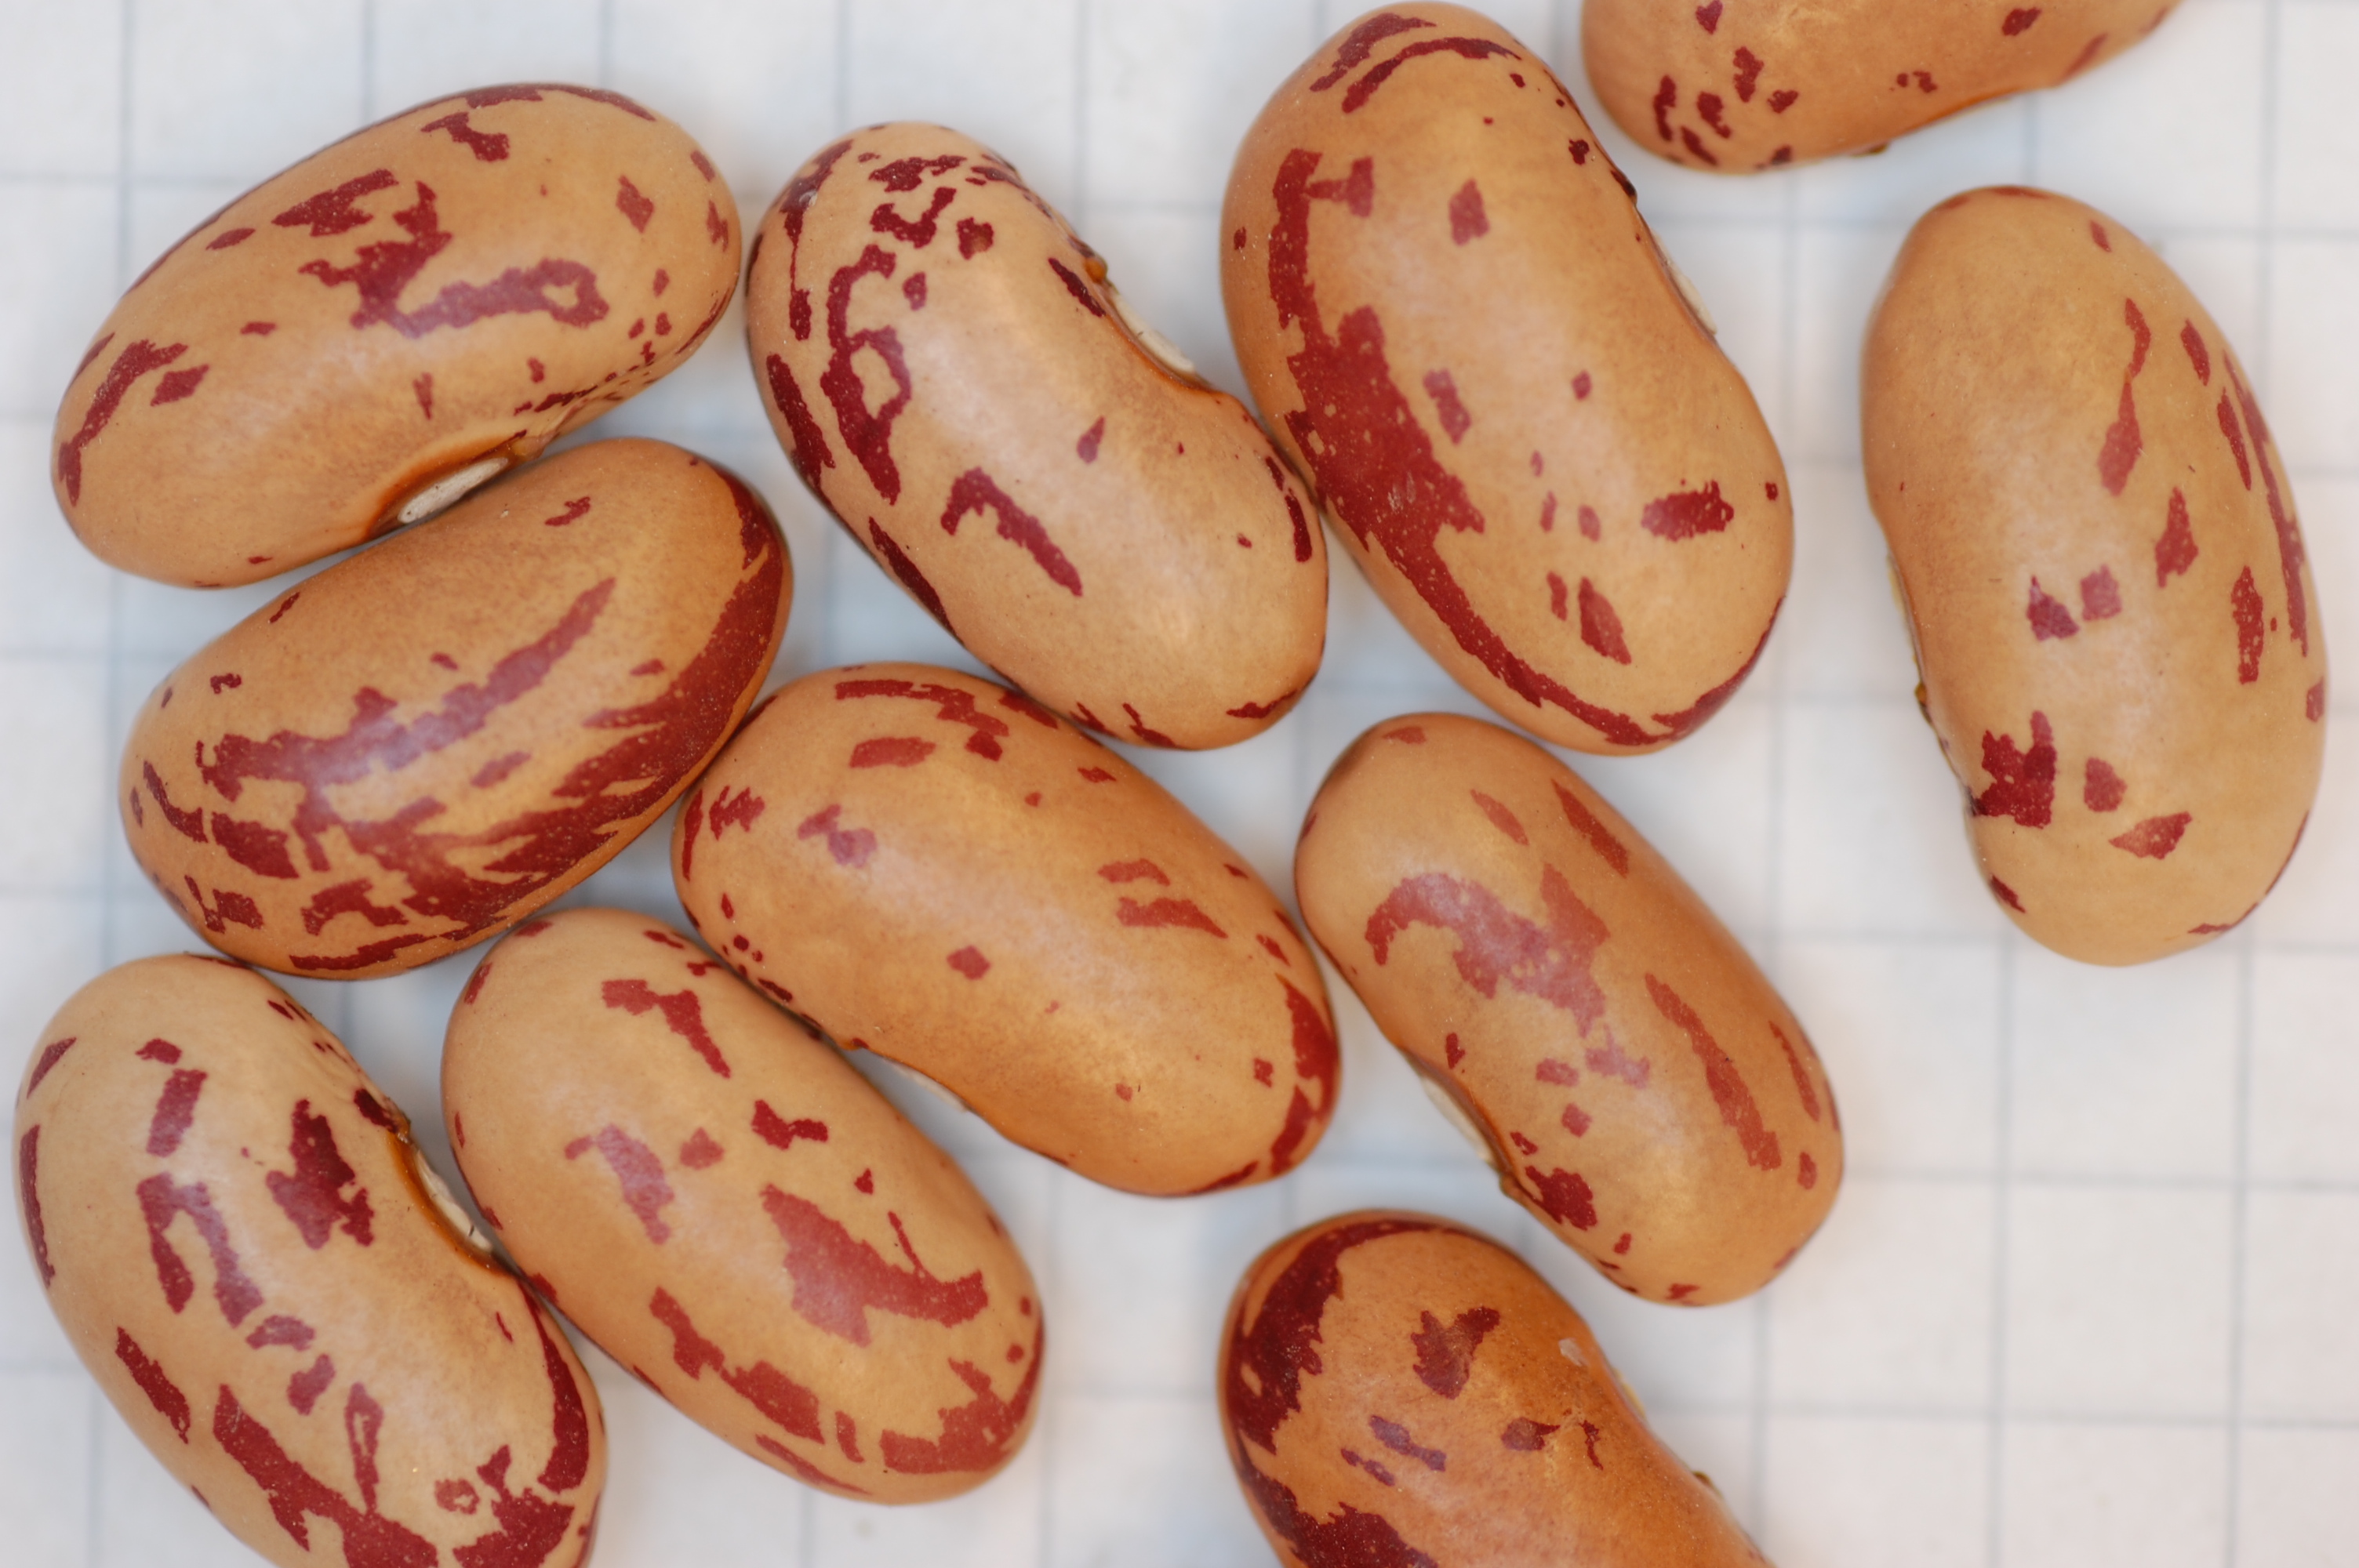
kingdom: Plantae
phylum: Tracheophyta
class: Magnoliopsida
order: Fabales
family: Fabaceae
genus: Phaseolus
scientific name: Phaseolus vulgaris
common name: Bean
